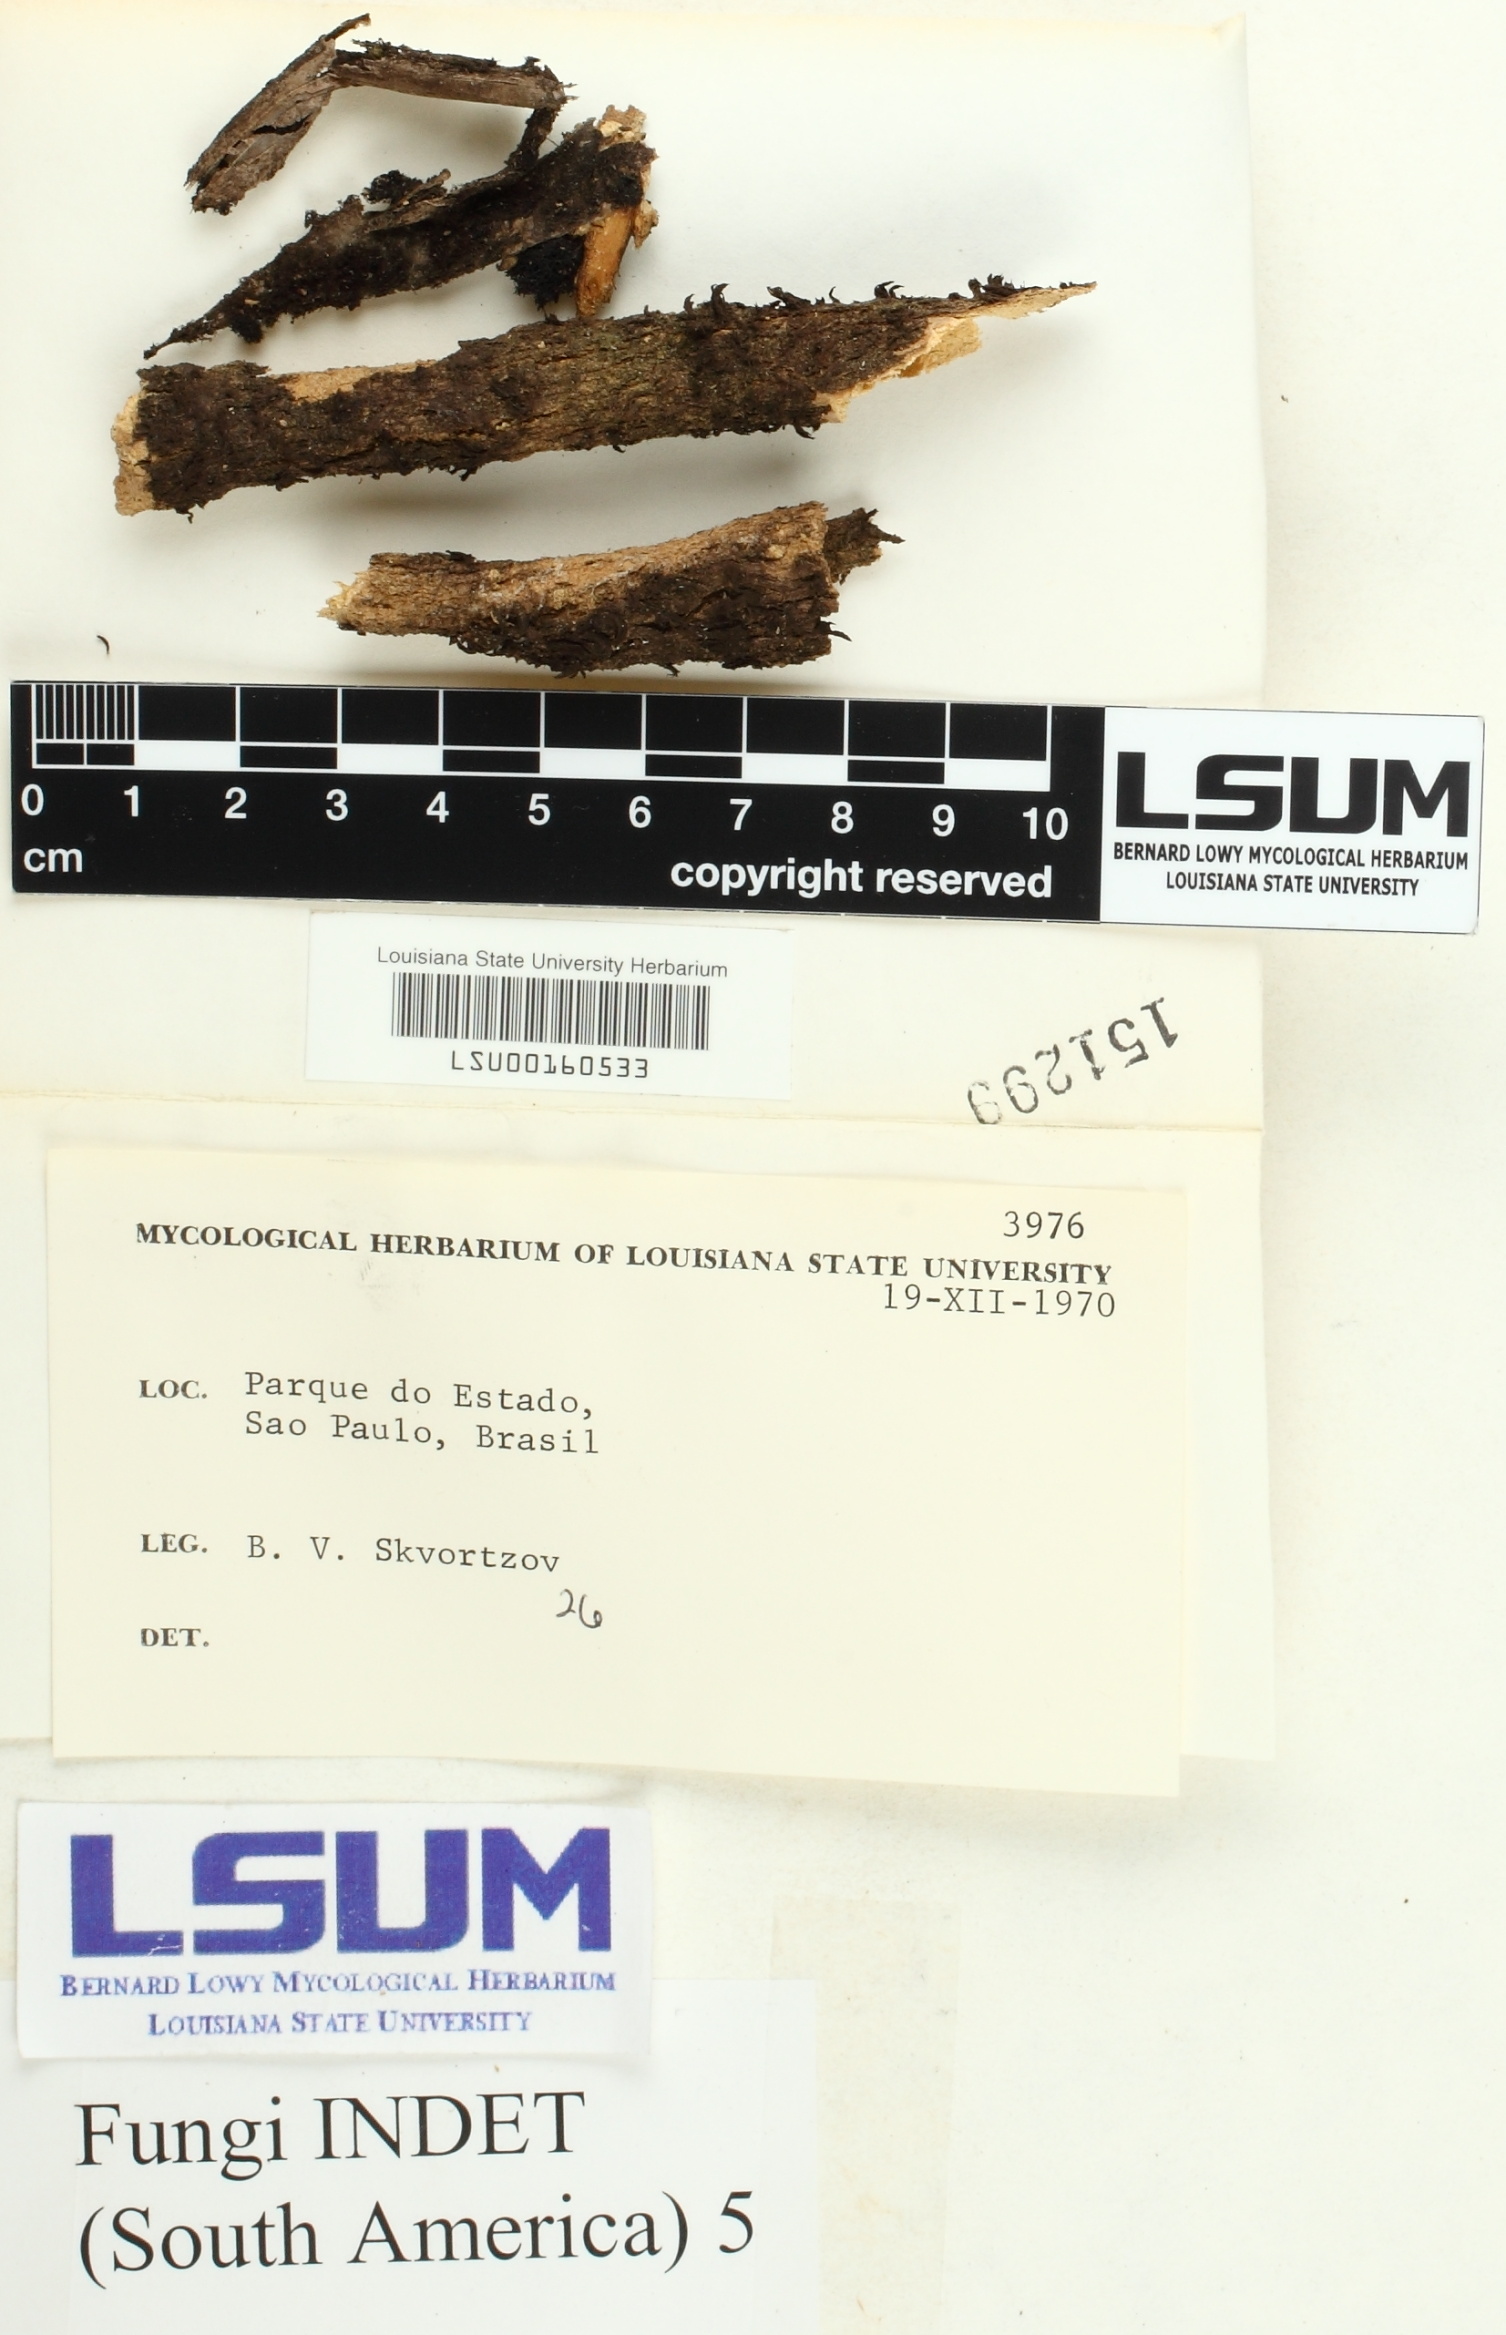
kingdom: Fungi
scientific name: Fungi
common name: Fungi
